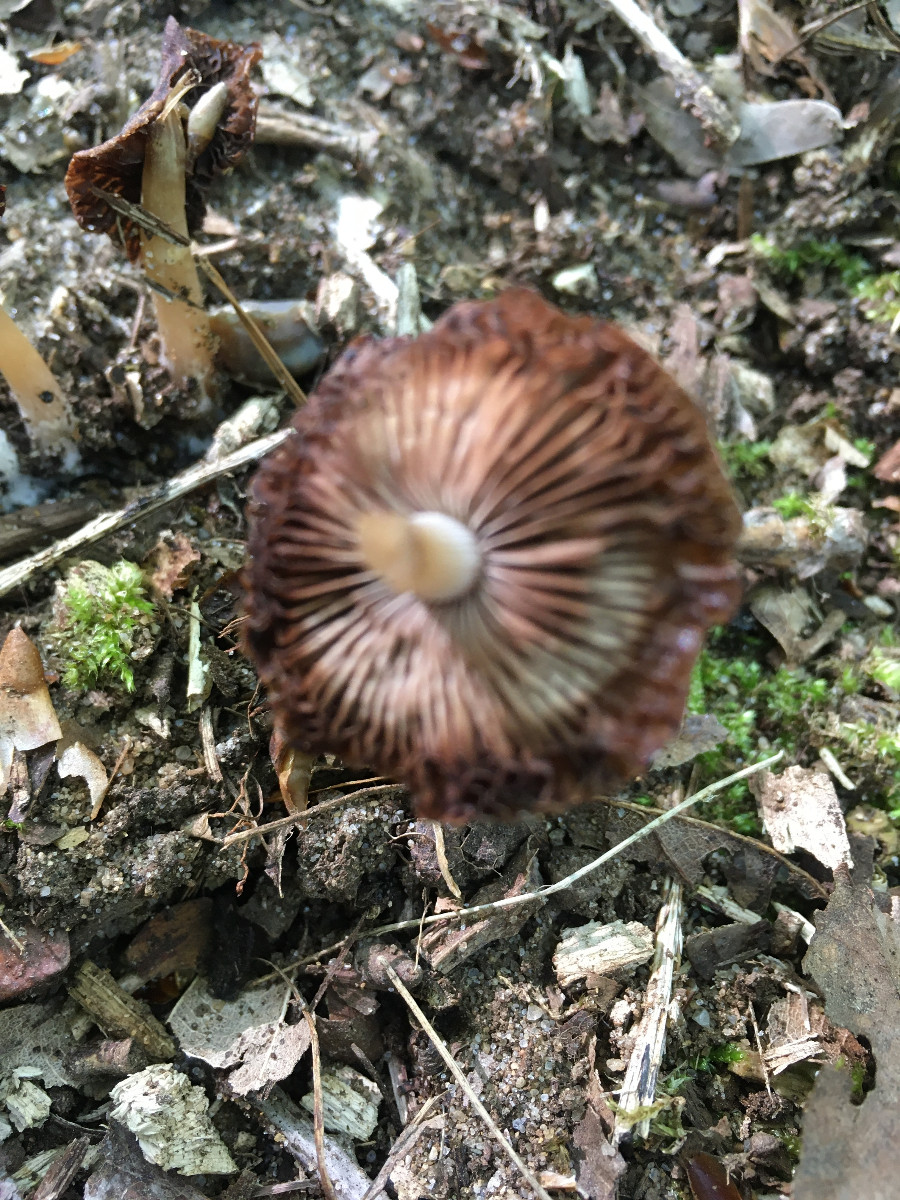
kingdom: Fungi
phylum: Basidiomycota
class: Agaricomycetes
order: Agaricales
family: Psathyrellaceae
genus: Psathyrella
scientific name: Psathyrella
